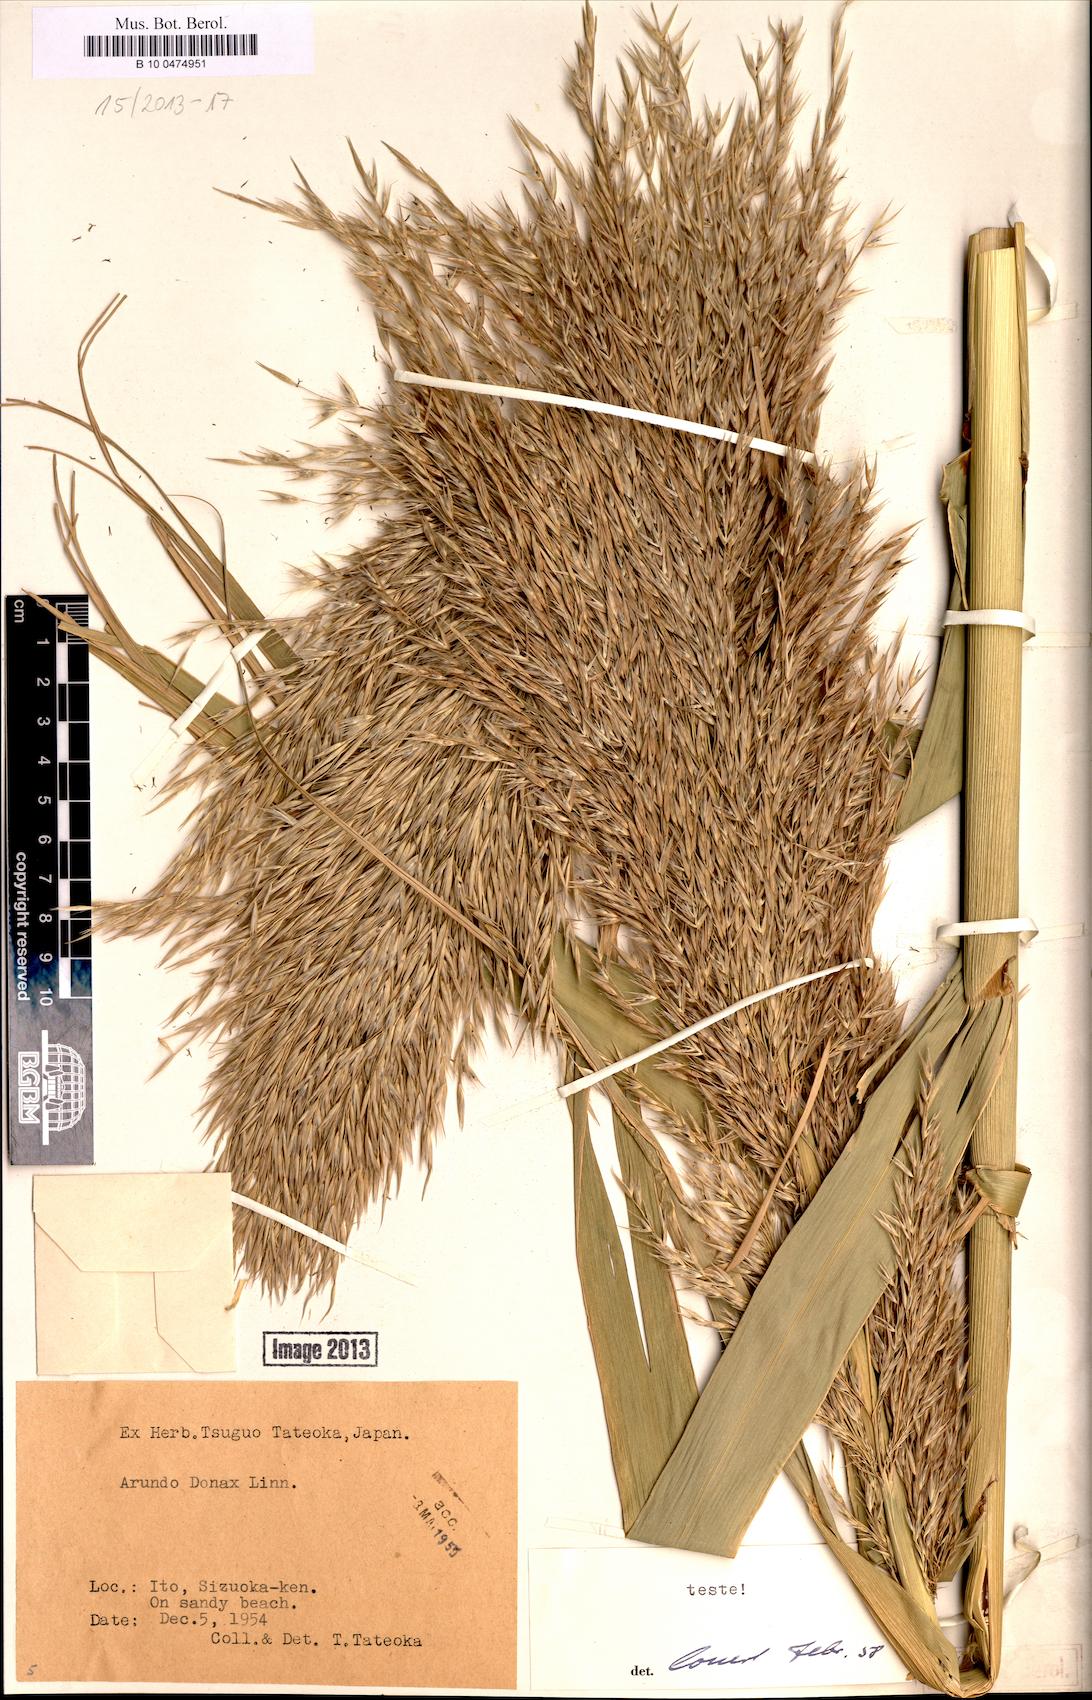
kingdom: Plantae
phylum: Tracheophyta
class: Liliopsida
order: Poales
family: Poaceae
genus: Arundo
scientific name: Arundo donax
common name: Giant reed
